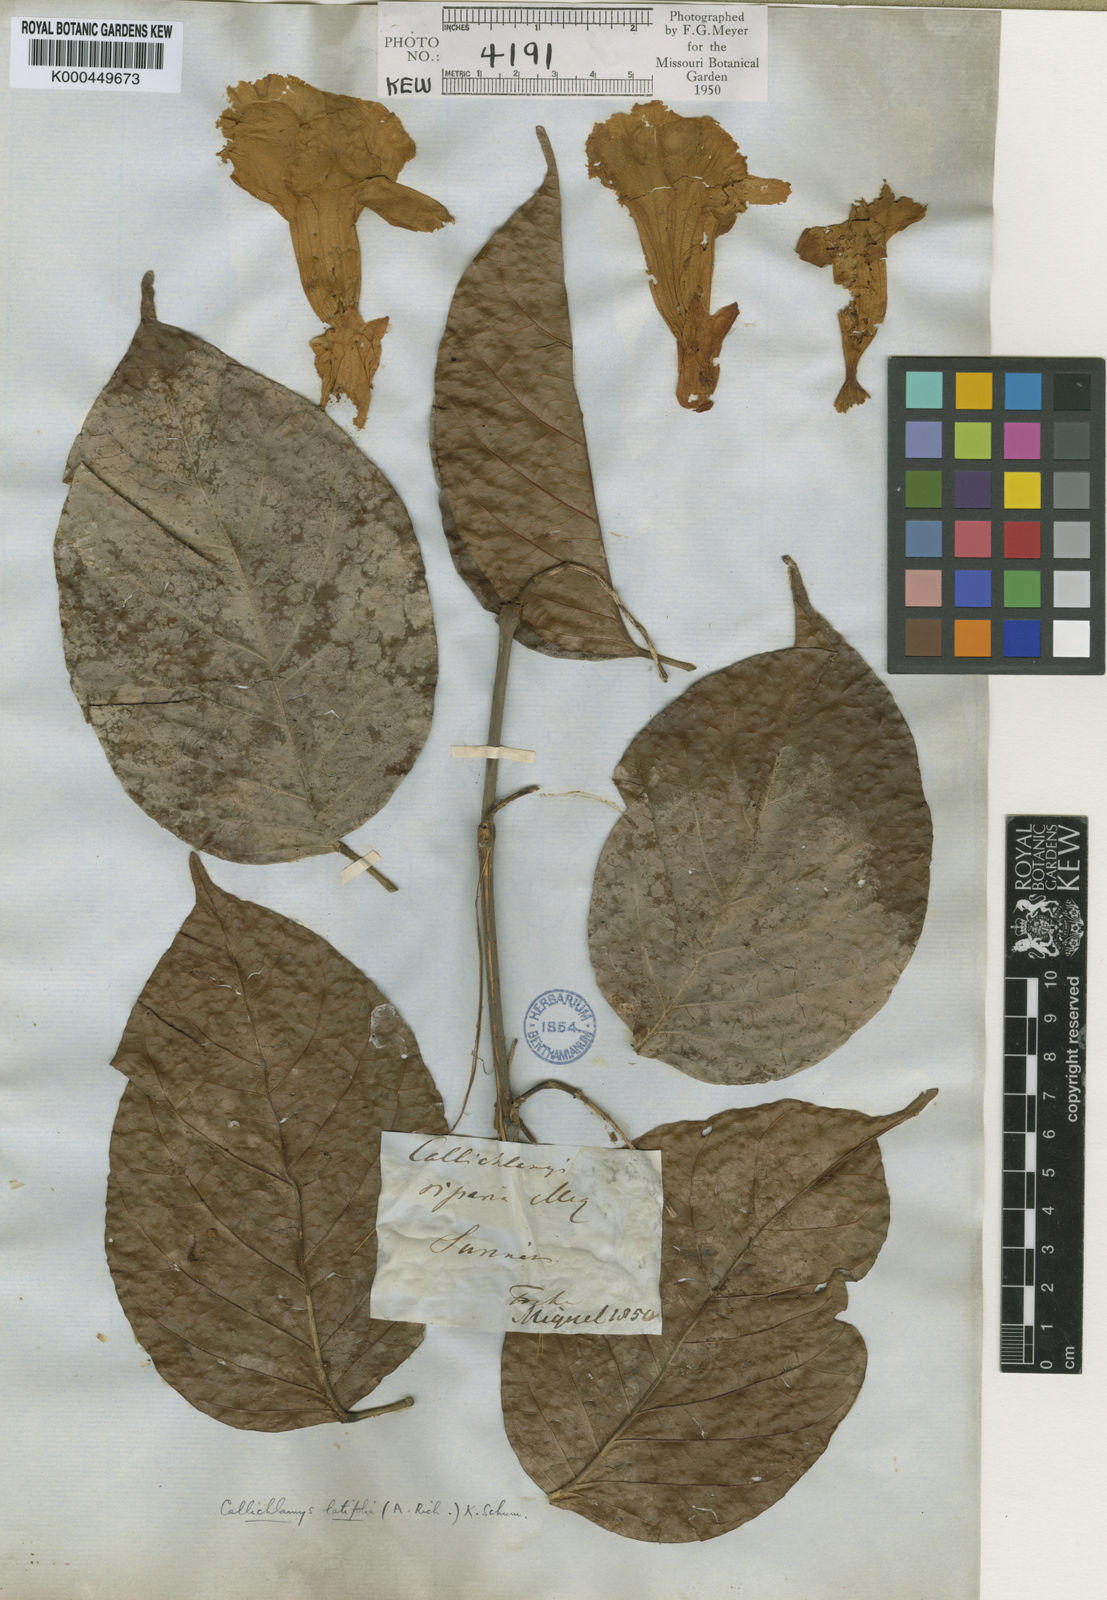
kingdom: Plantae
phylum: Tracheophyta
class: Magnoliopsida
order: Lamiales
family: Bignoniaceae
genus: Callichlamys
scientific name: Callichlamys latifolia
